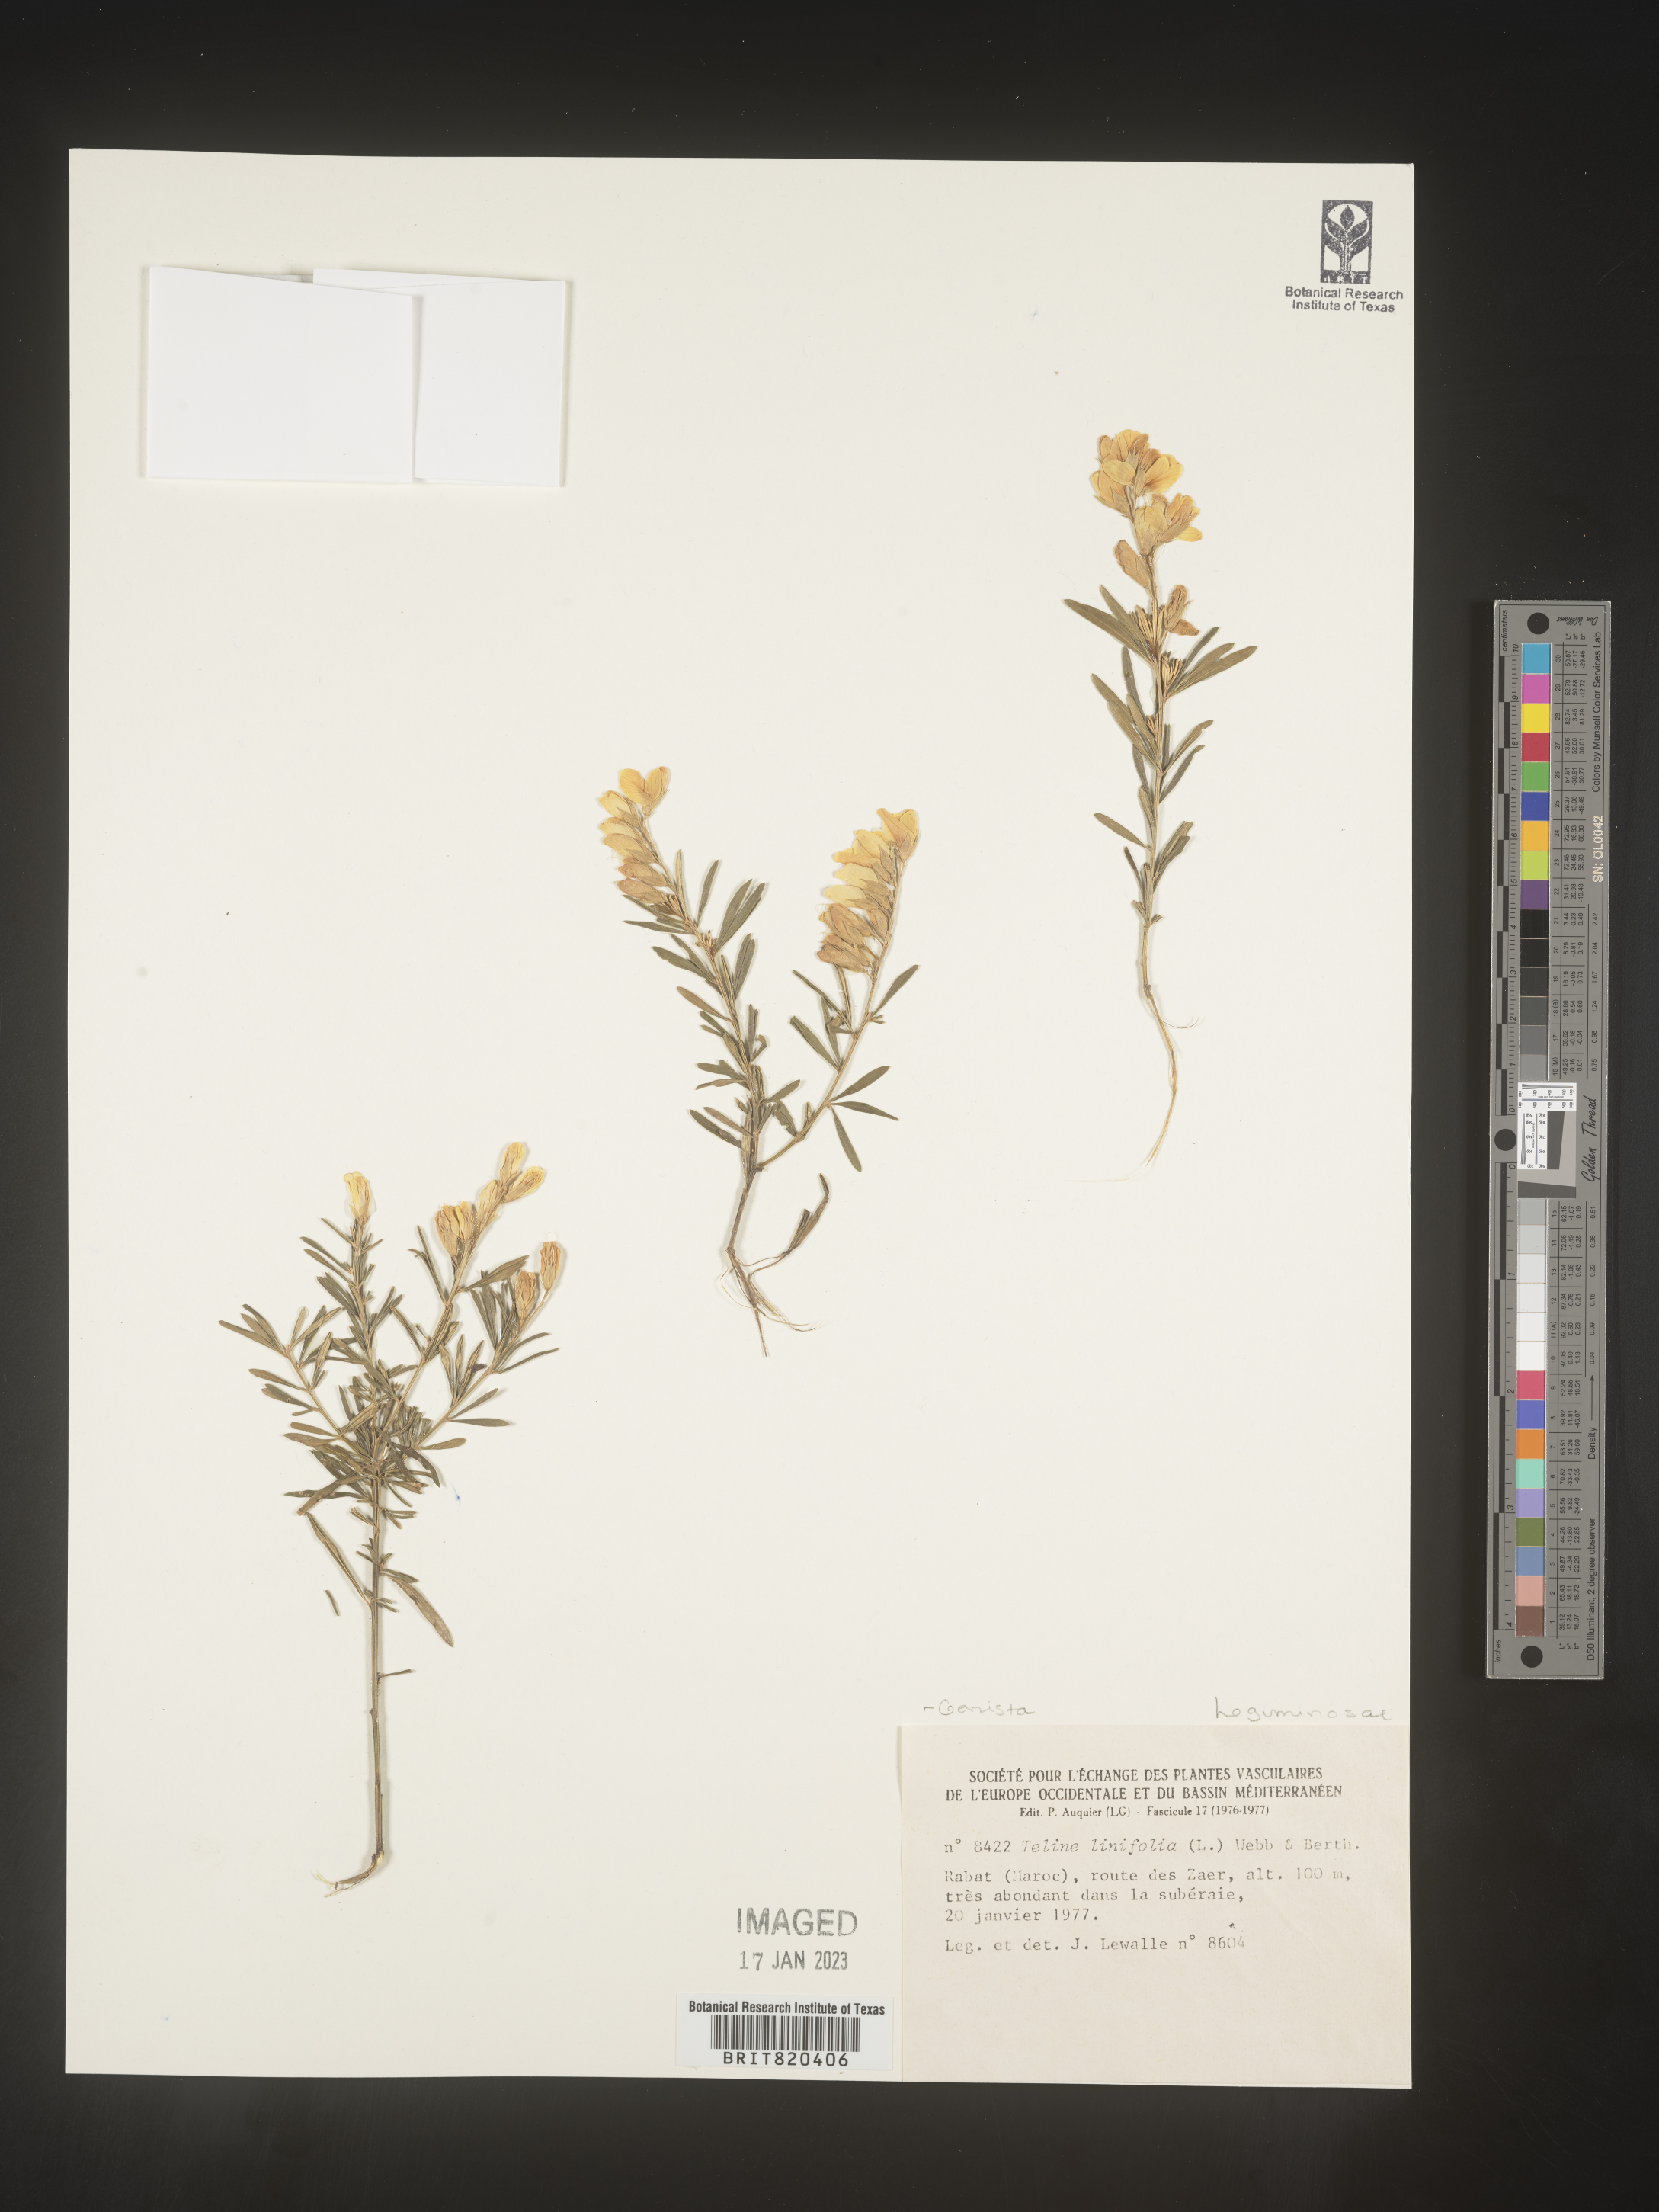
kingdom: Plantae
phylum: Tracheophyta
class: Magnoliopsida
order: Fabales
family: Fabaceae
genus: Genista
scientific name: Genista
